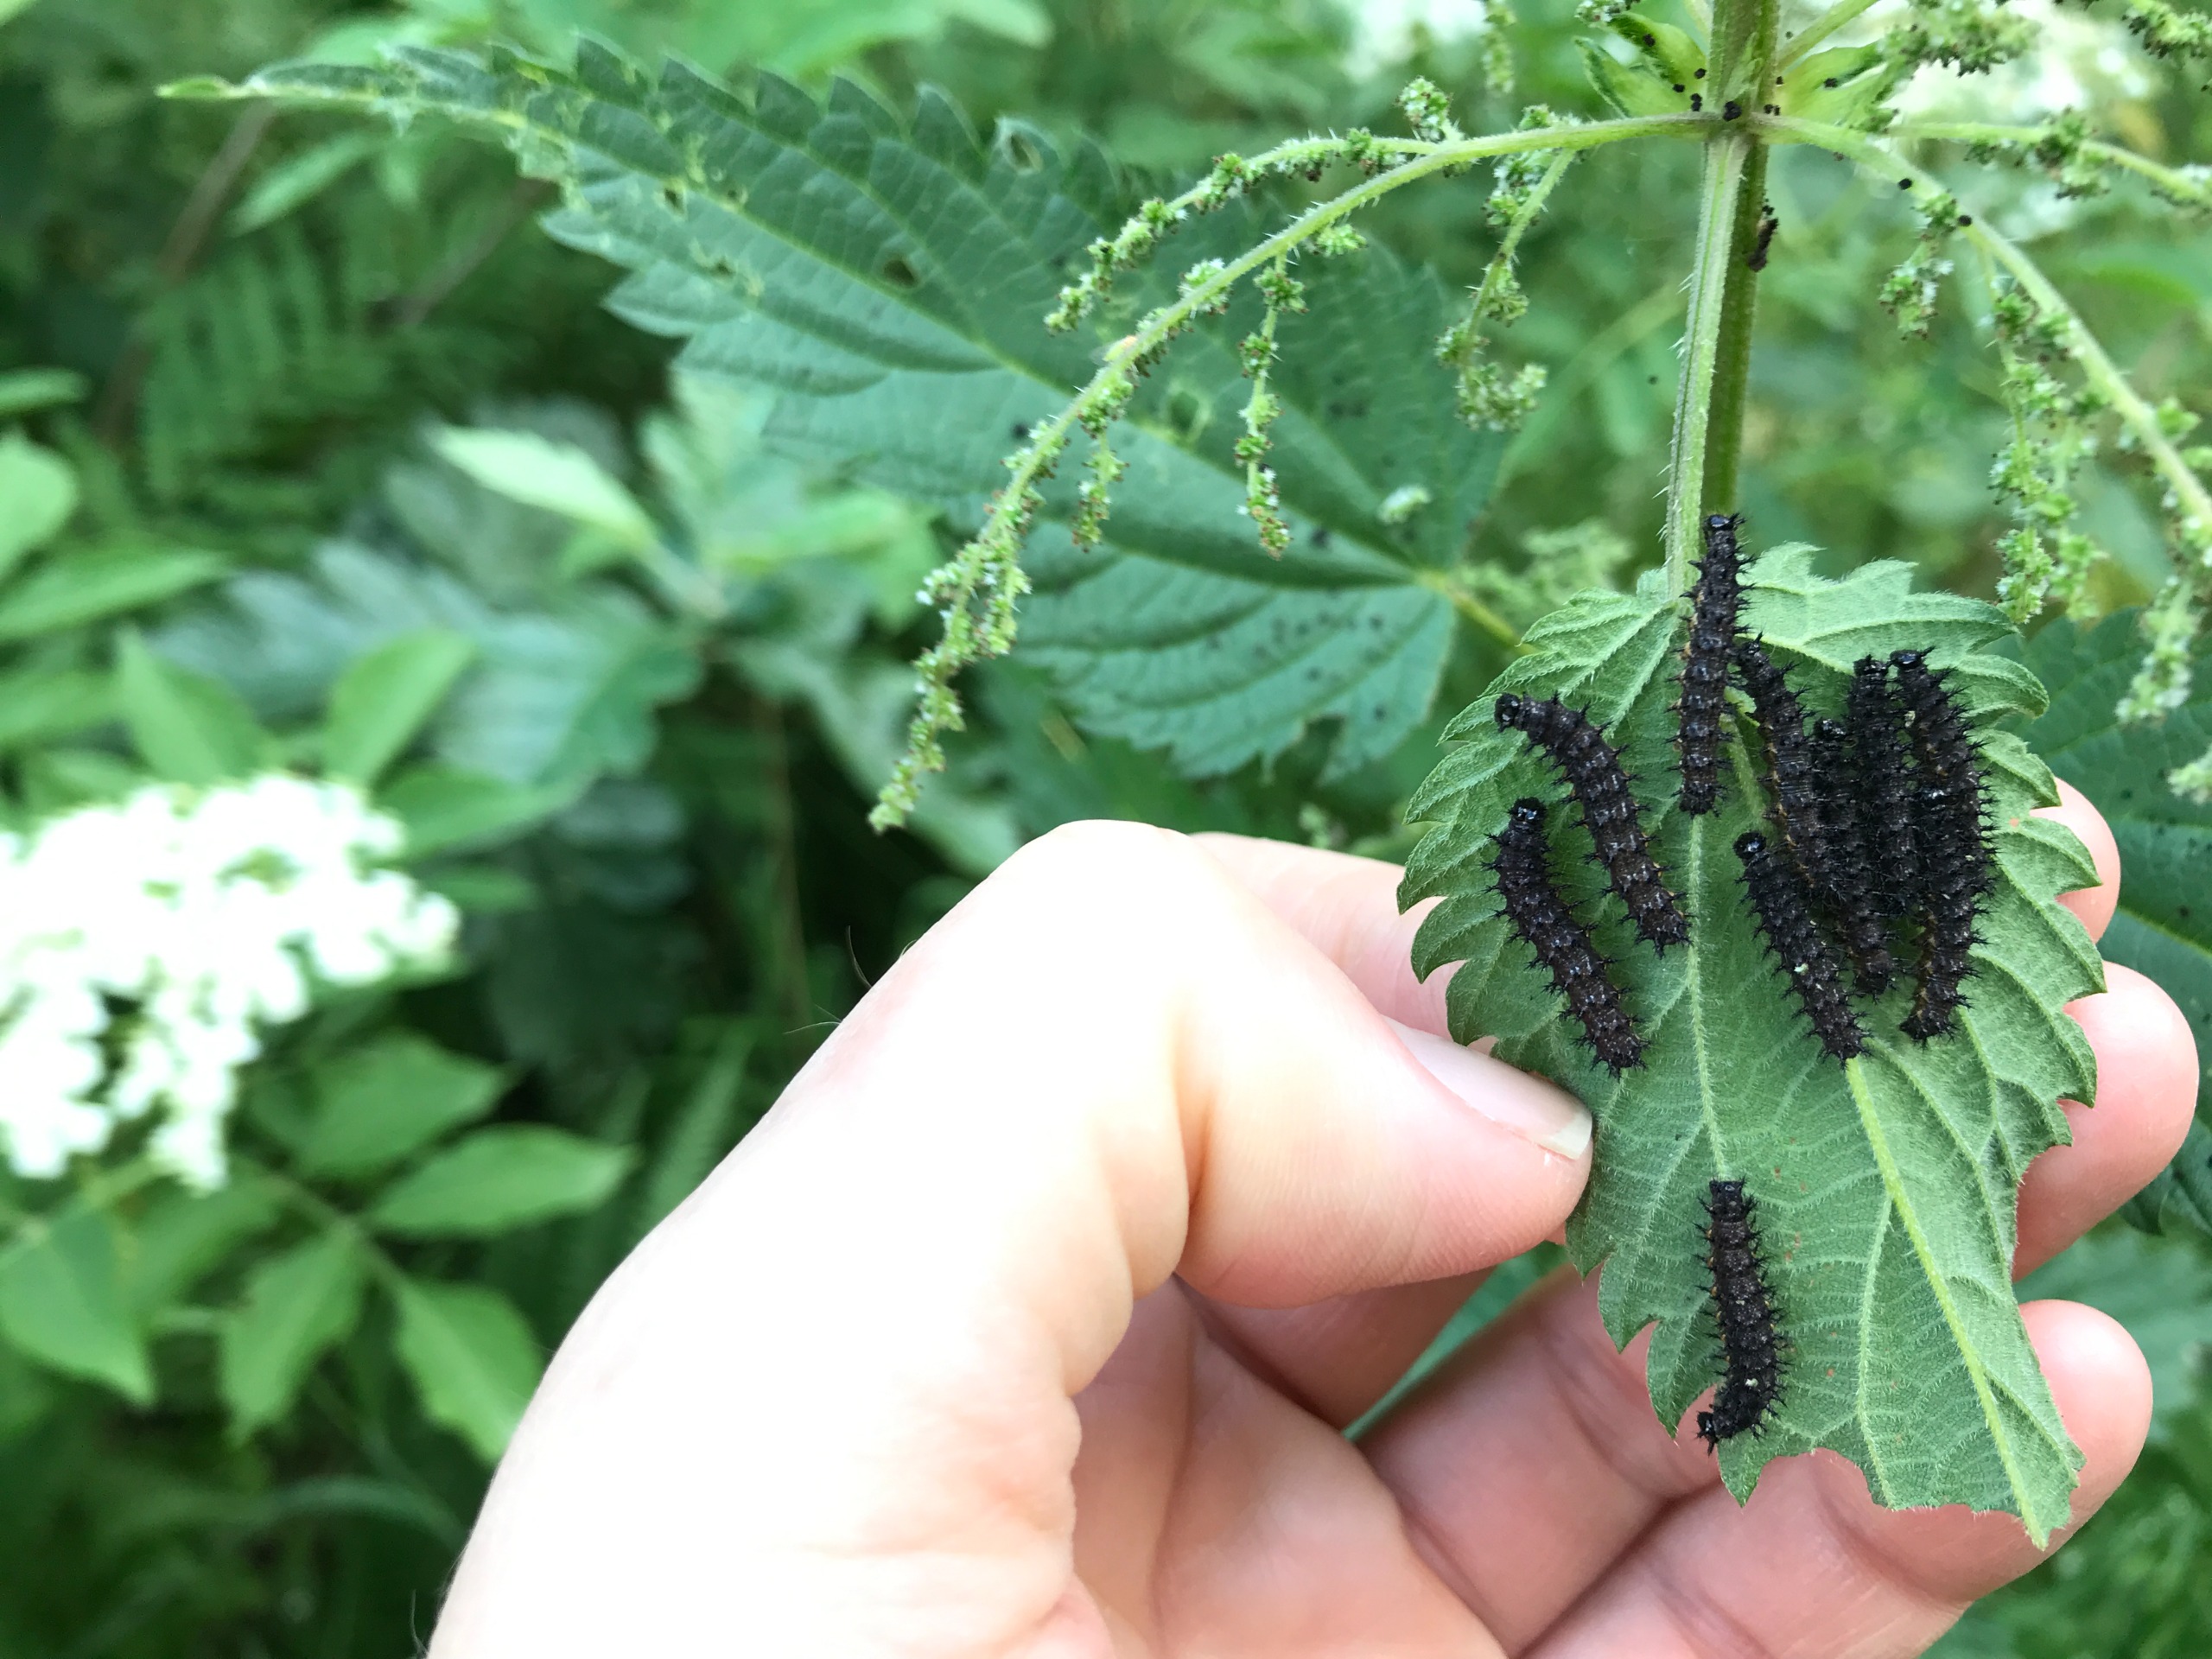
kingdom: Animalia
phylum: Arthropoda
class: Insecta
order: Lepidoptera
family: Nymphalidae
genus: Araschnia
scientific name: Araschnia levana
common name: Nældesommerfugl
